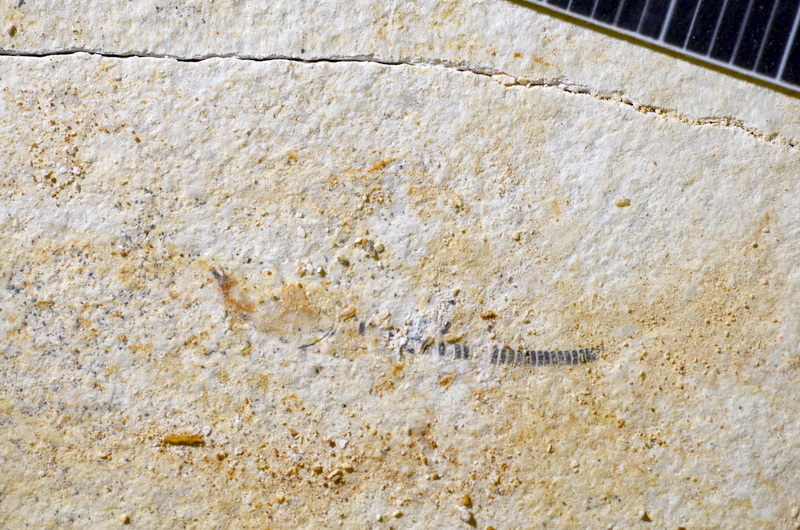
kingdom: Animalia
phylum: Chordata
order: Salmoniformes
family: Orthogonikleithridae
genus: Orthogonikleithrus
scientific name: Orthogonikleithrus hoelli
